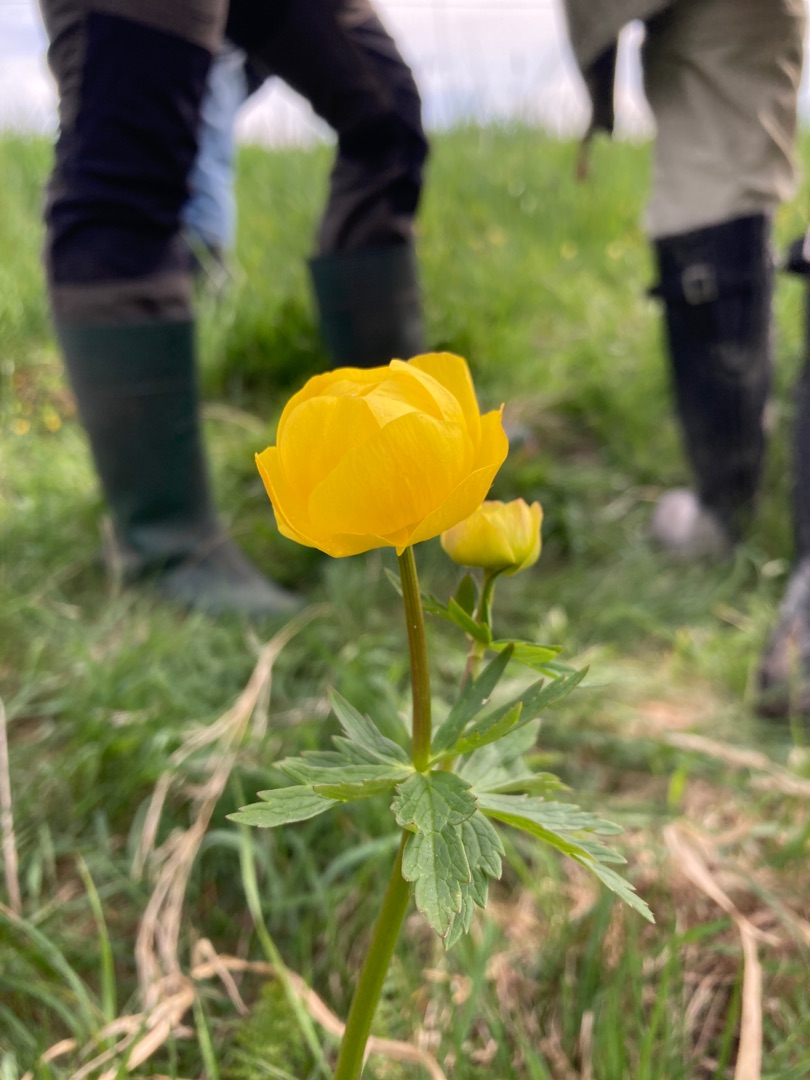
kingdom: Plantae
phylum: Tracheophyta
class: Magnoliopsida
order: Ranunculales
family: Ranunculaceae
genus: Trollius
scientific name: Trollius europaeus
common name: Engblomme
